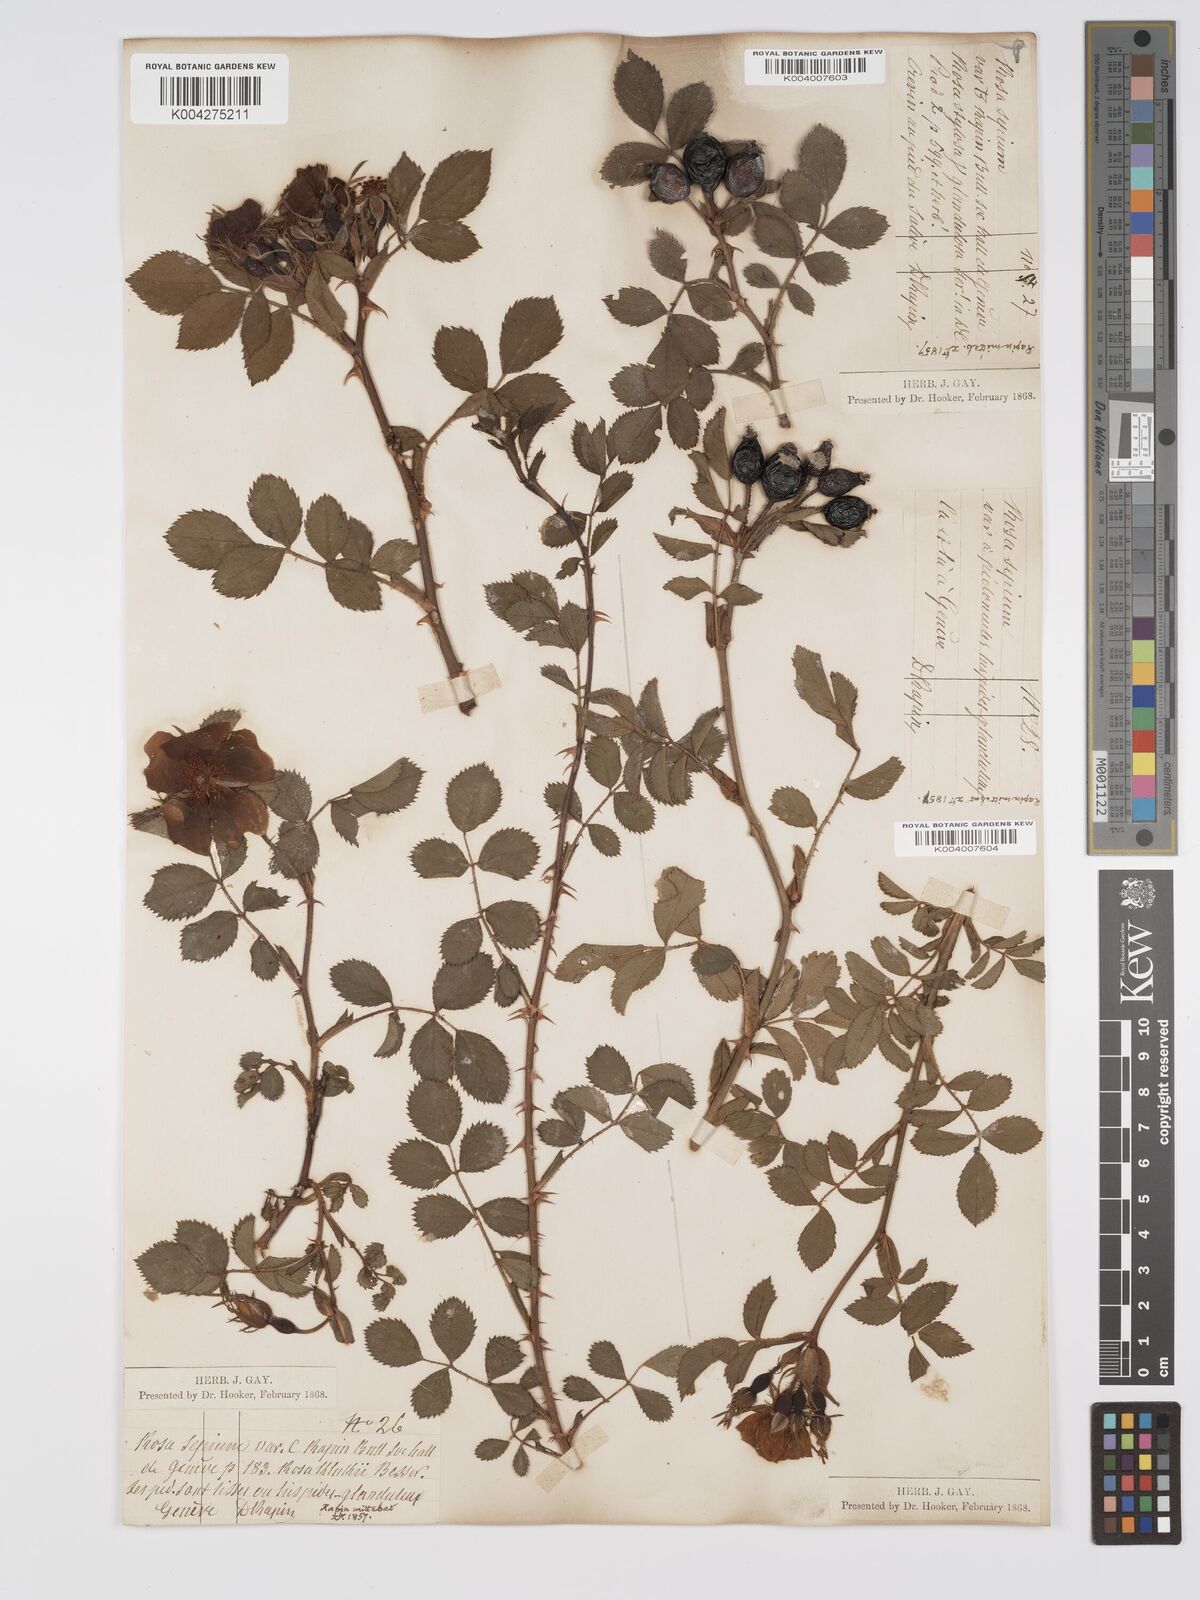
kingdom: Plantae
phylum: Tracheophyta
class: Magnoliopsida
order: Rosales
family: Rosaceae
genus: Rosa
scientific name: Rosa
